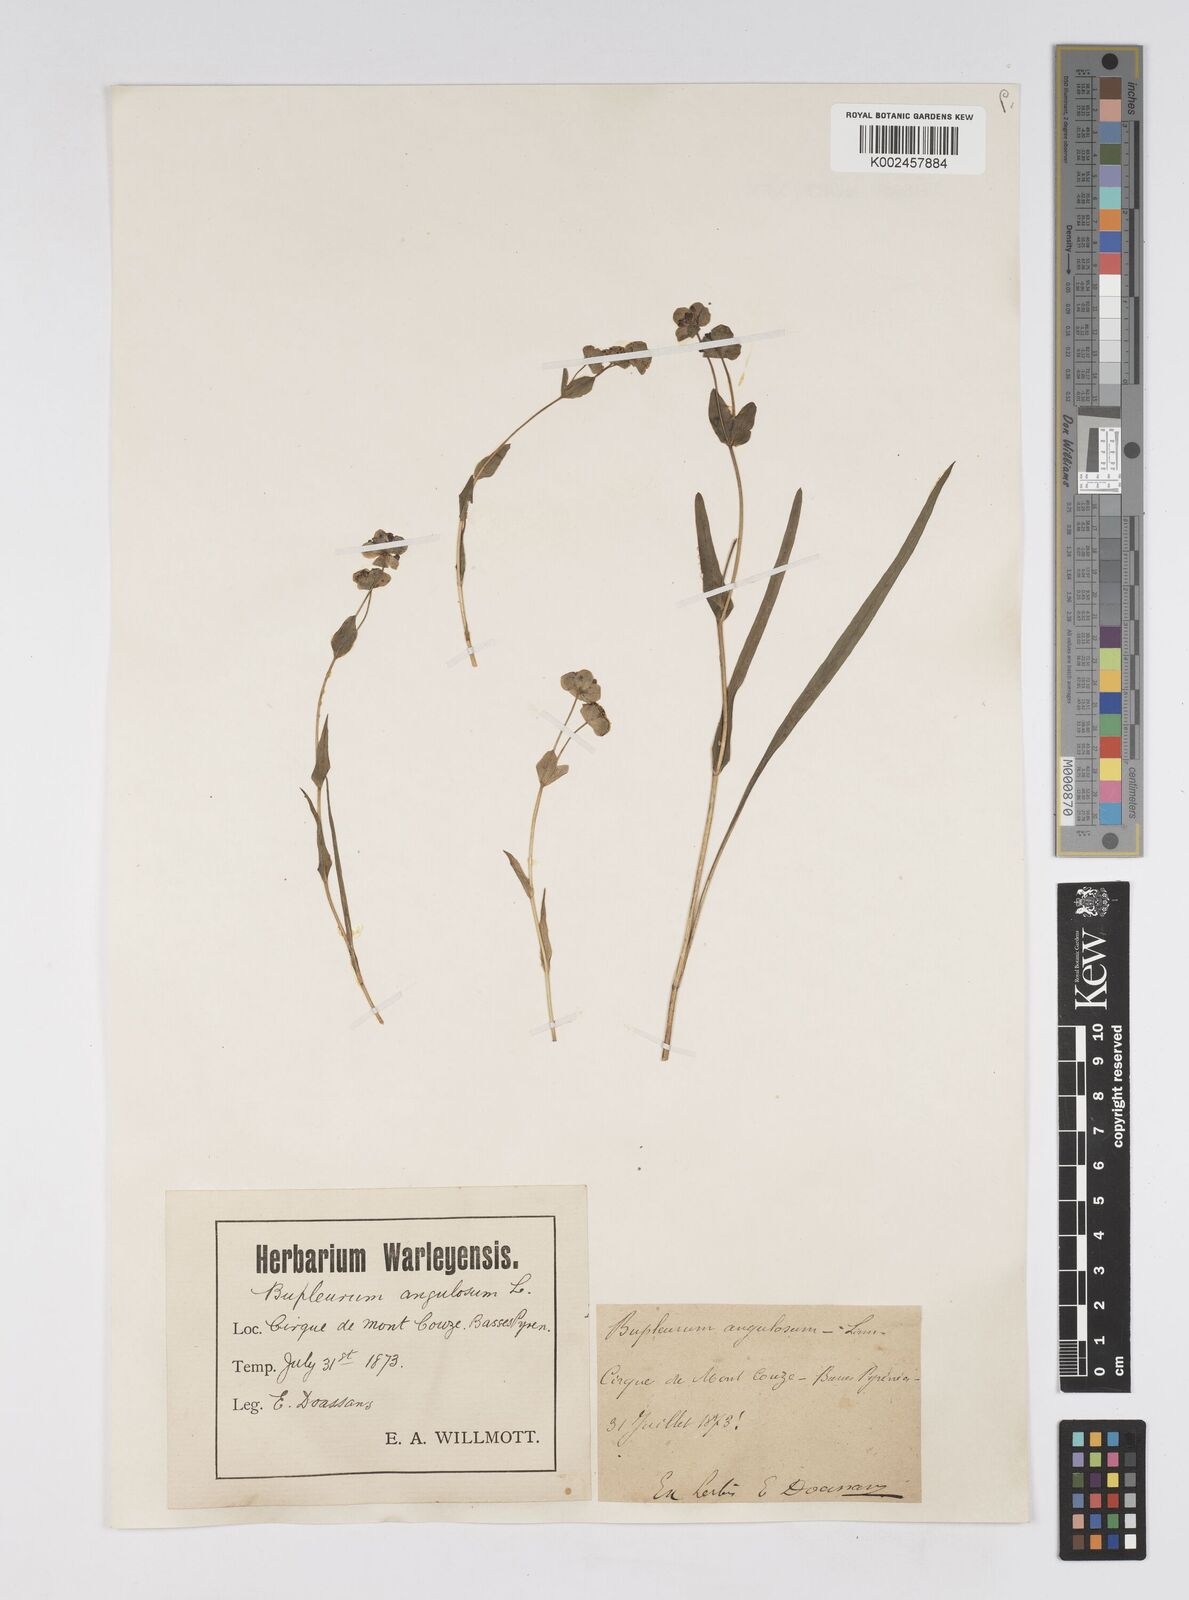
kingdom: Plantae
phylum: Tracheophyta
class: Magnoliopsida
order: Apiales
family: Apiaceae
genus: Bupleurum
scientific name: Bupleurum angulosum
